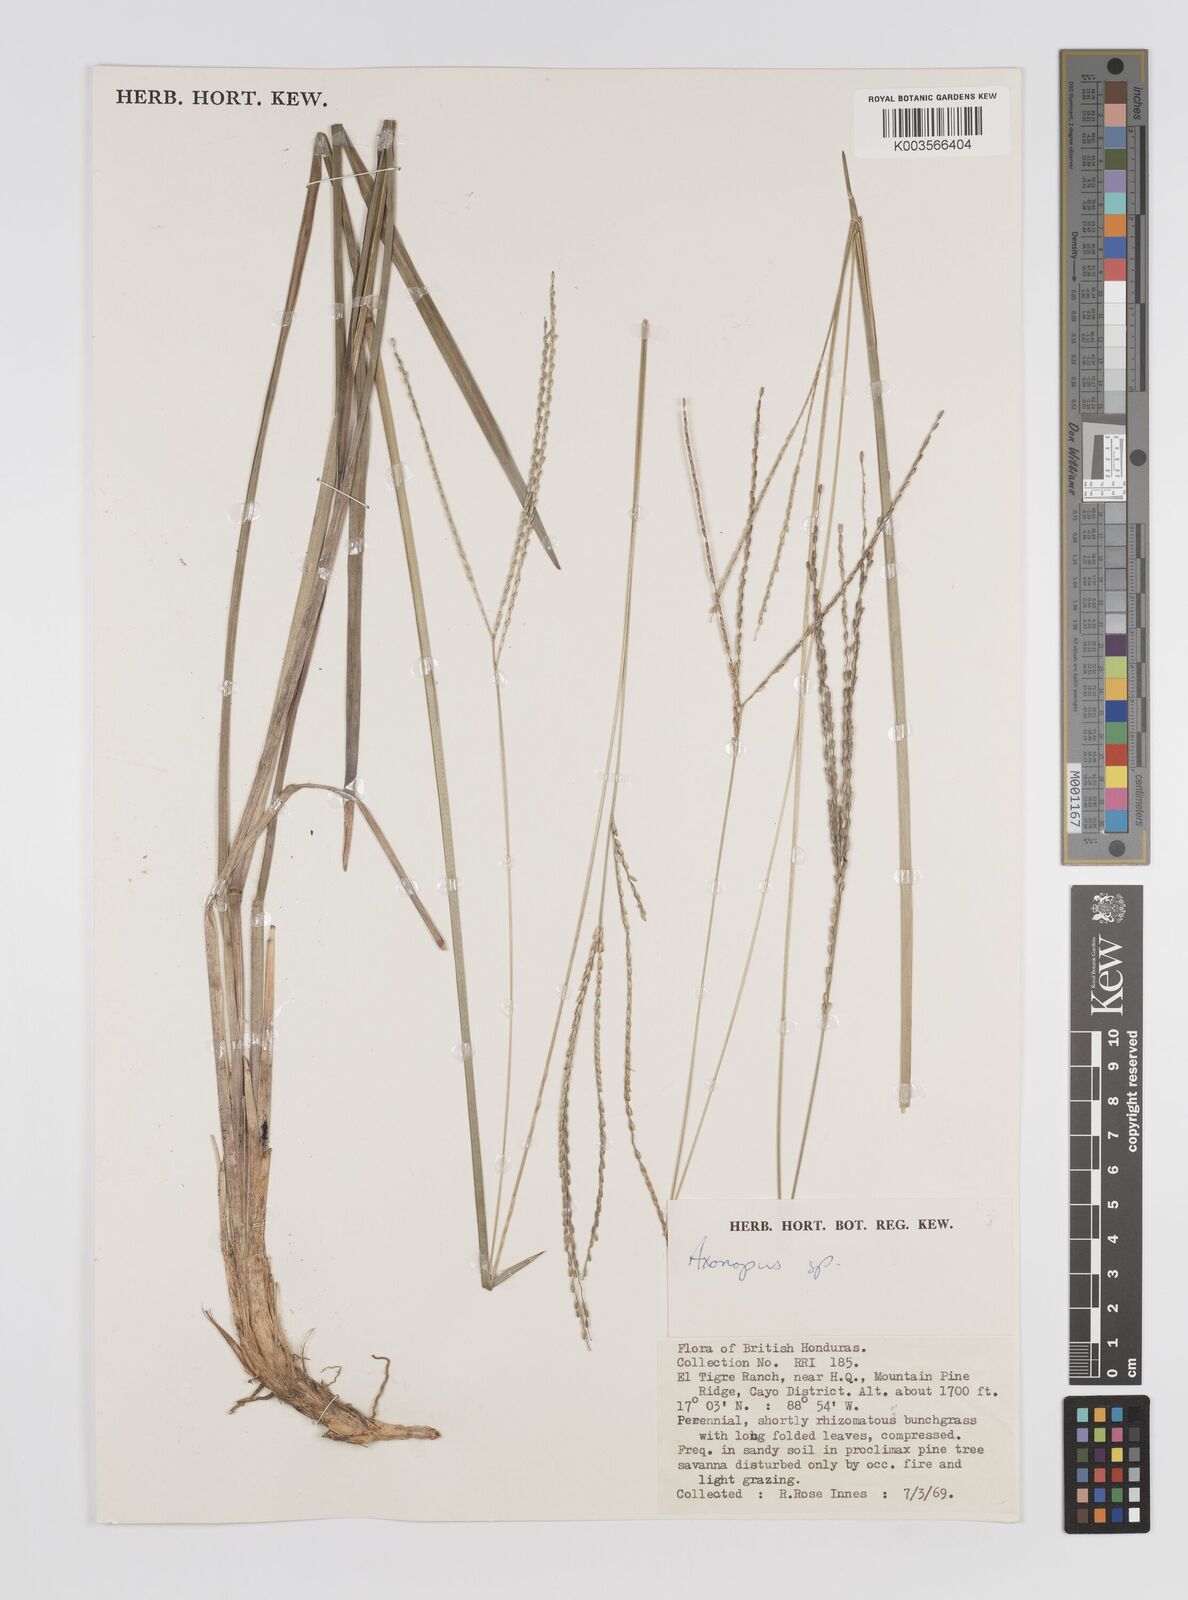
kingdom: Plantae
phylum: Tracheophyta
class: Liliopsida
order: Poales
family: Poaceae
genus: Axonopus
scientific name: Axonopus
